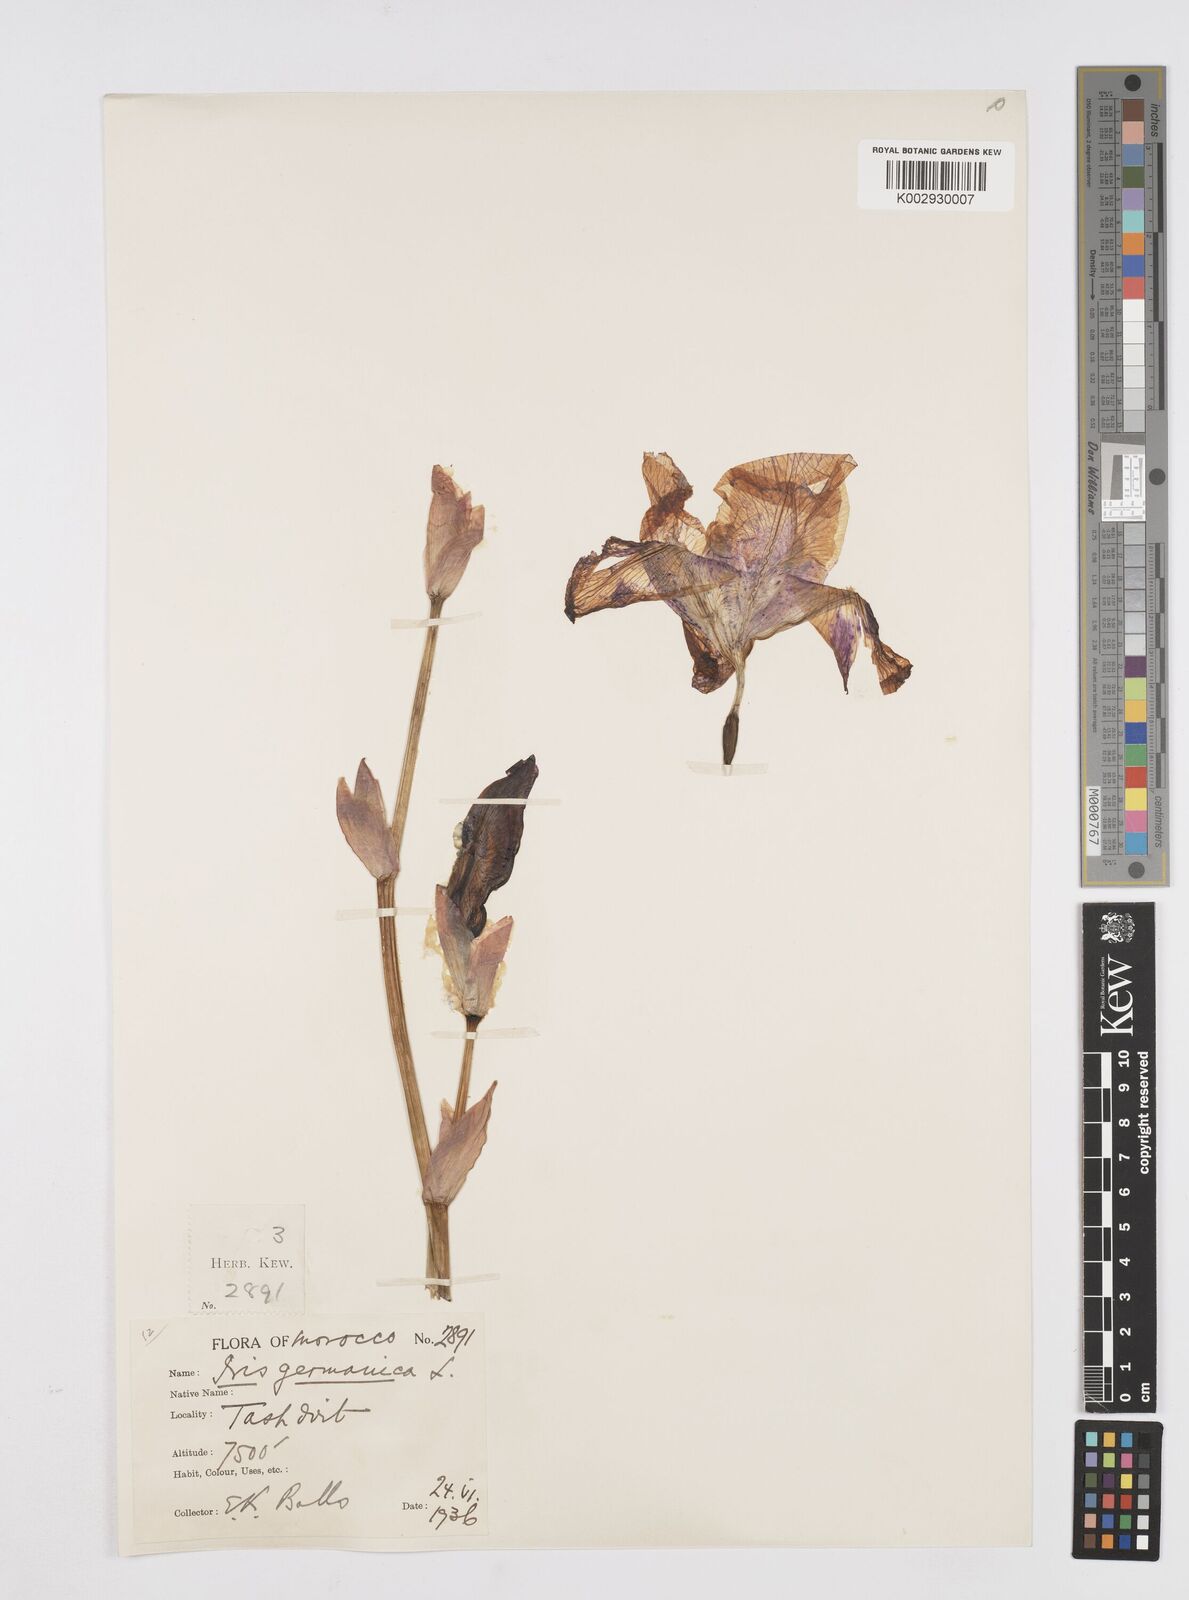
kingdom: Plantae
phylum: Tracheophyta
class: Liliopsida
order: Asparagales
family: Iridaceae
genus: Iris
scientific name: Iris germanica
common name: German iris
